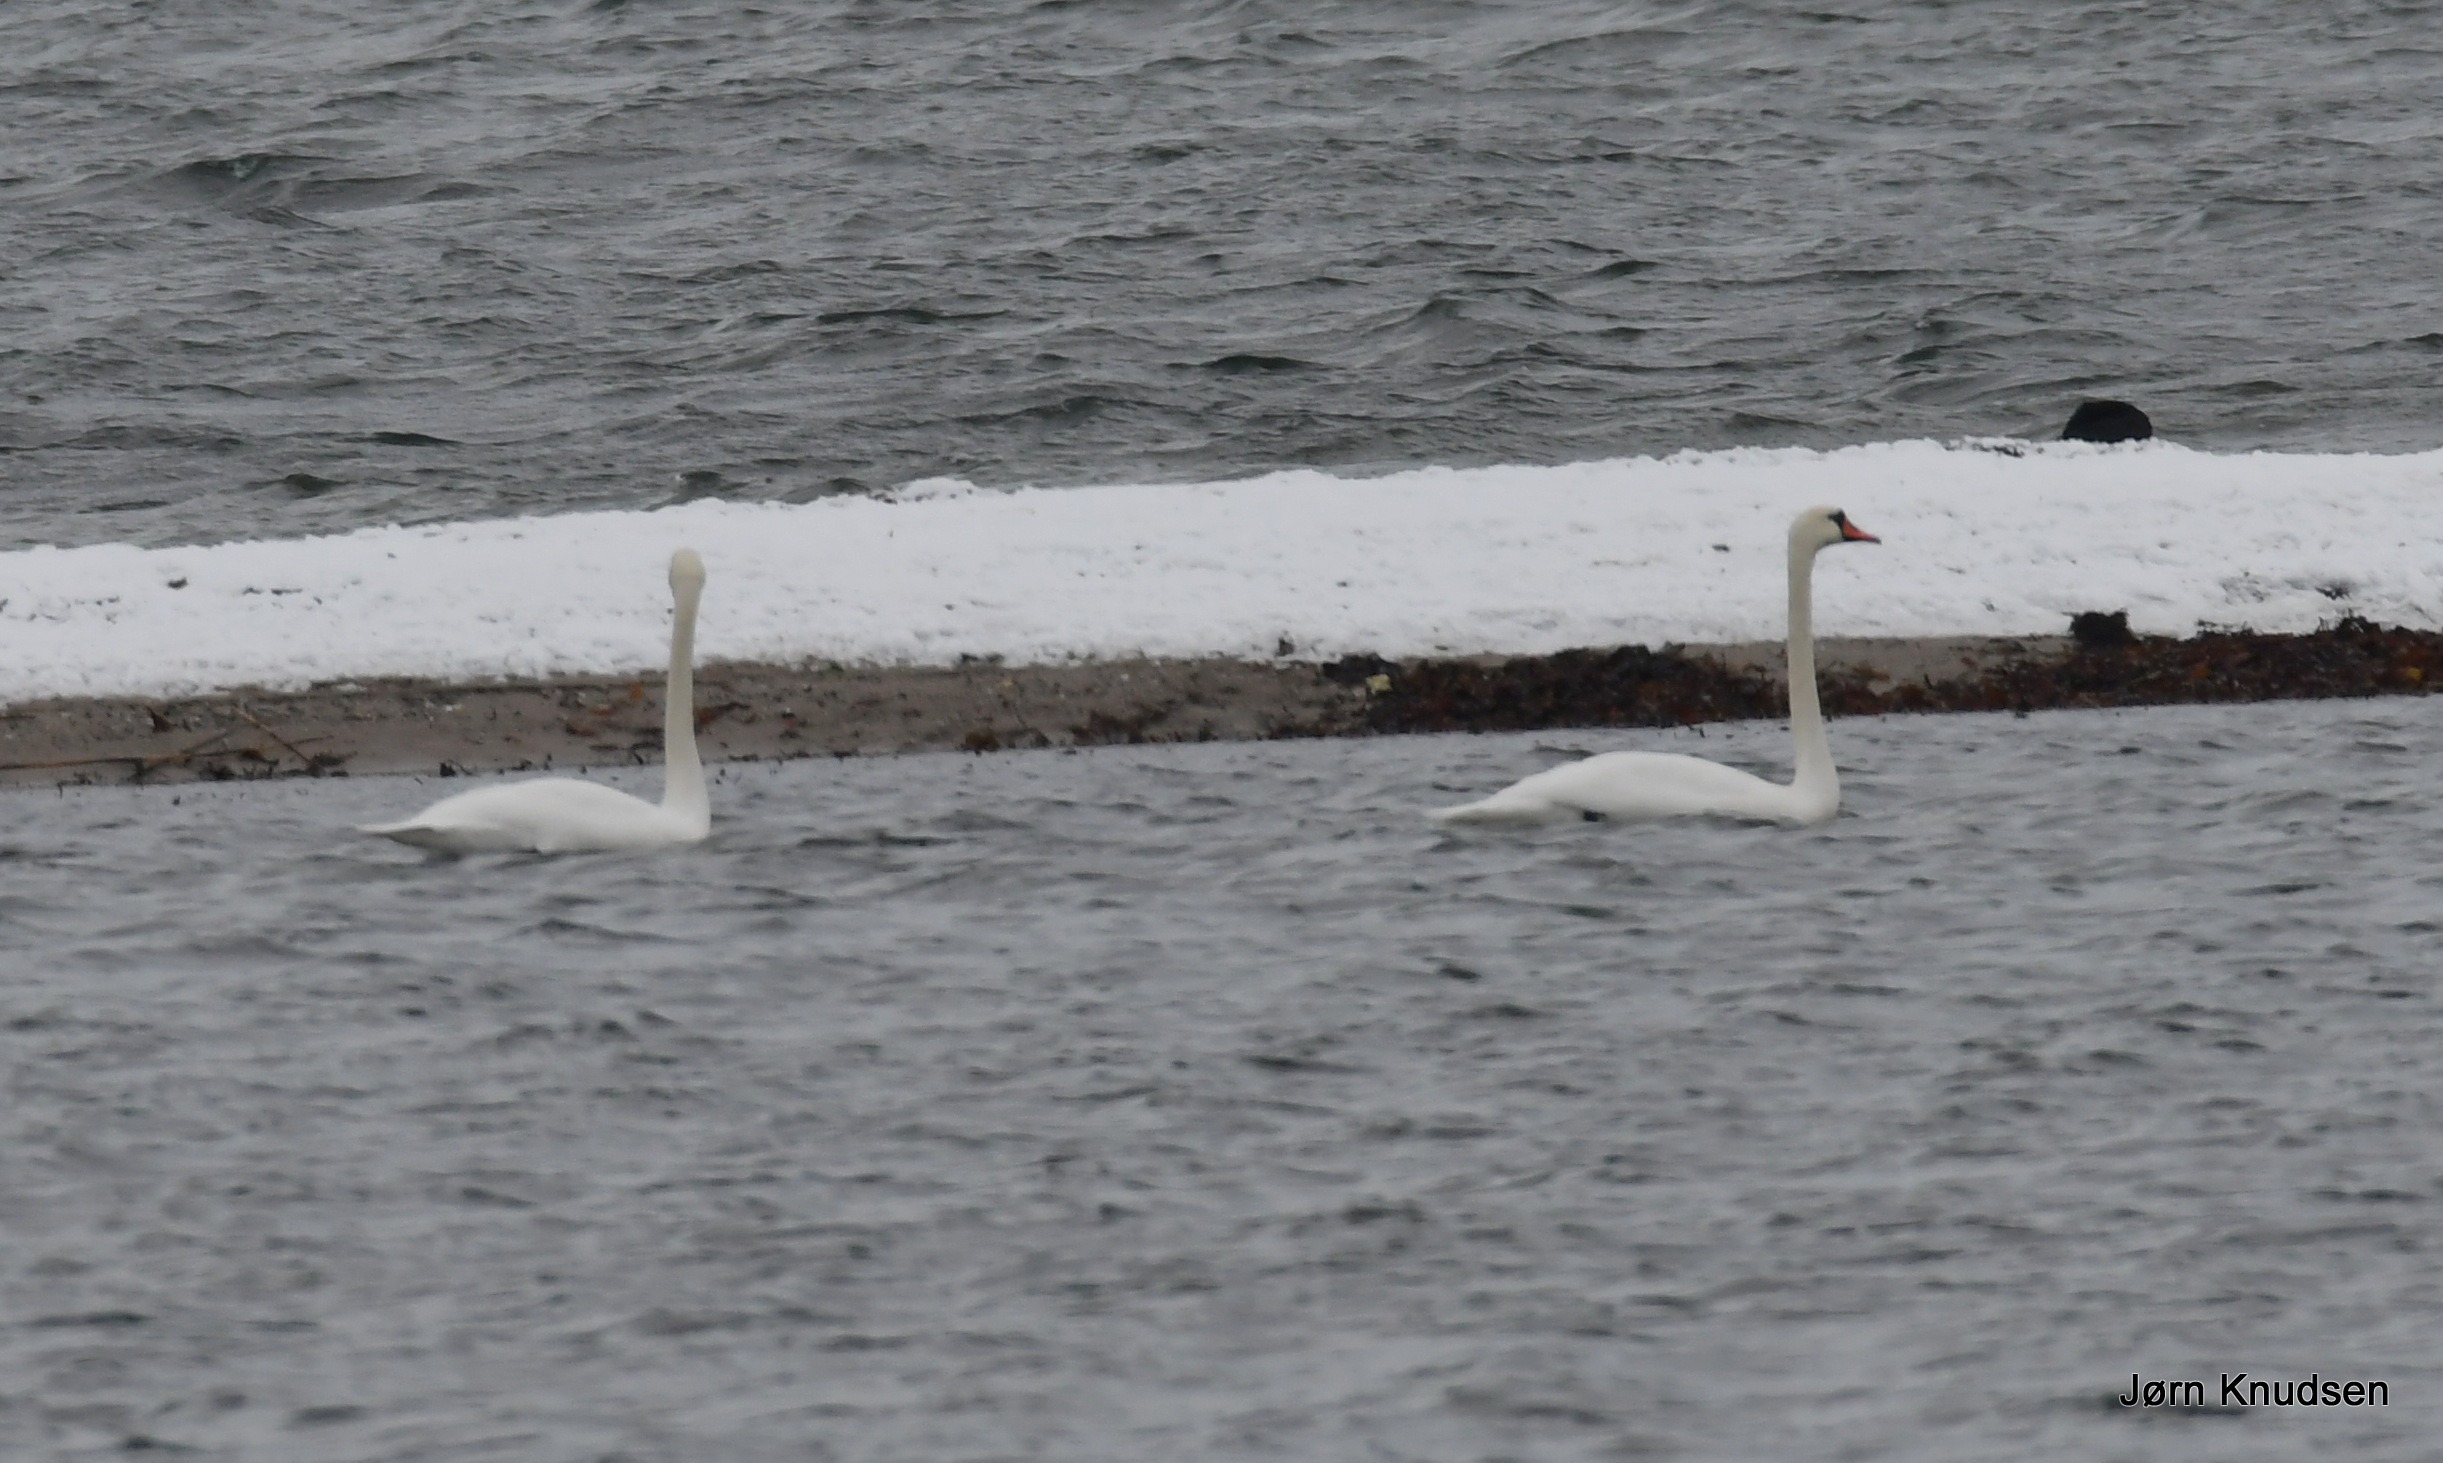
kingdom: Animalia
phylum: Chordata
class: Aves
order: Anseriformes
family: Anatidae
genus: Cygnus
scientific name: Cygnus olor
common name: Knopsvane
